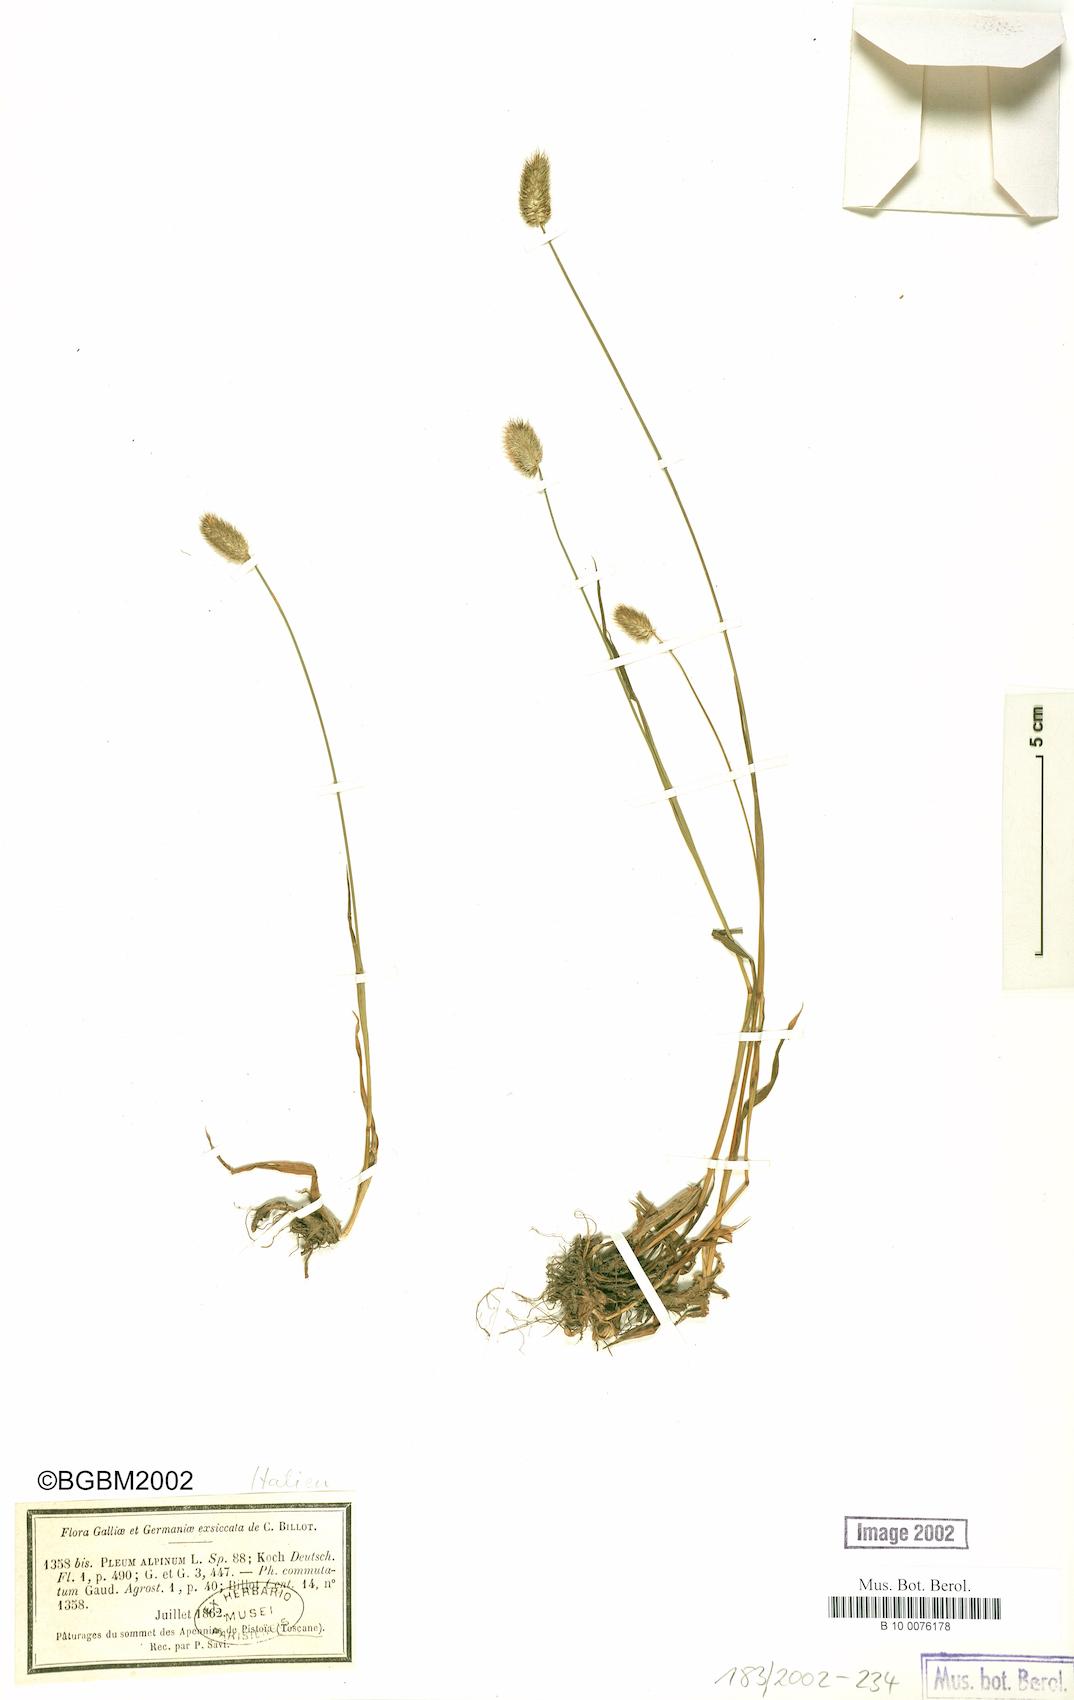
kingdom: Plantae
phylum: Tracheophyta
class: Liliopsida
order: Poales
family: Poaceae
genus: Phleum
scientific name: Phleum alpinum
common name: Alpine cat's-tail
